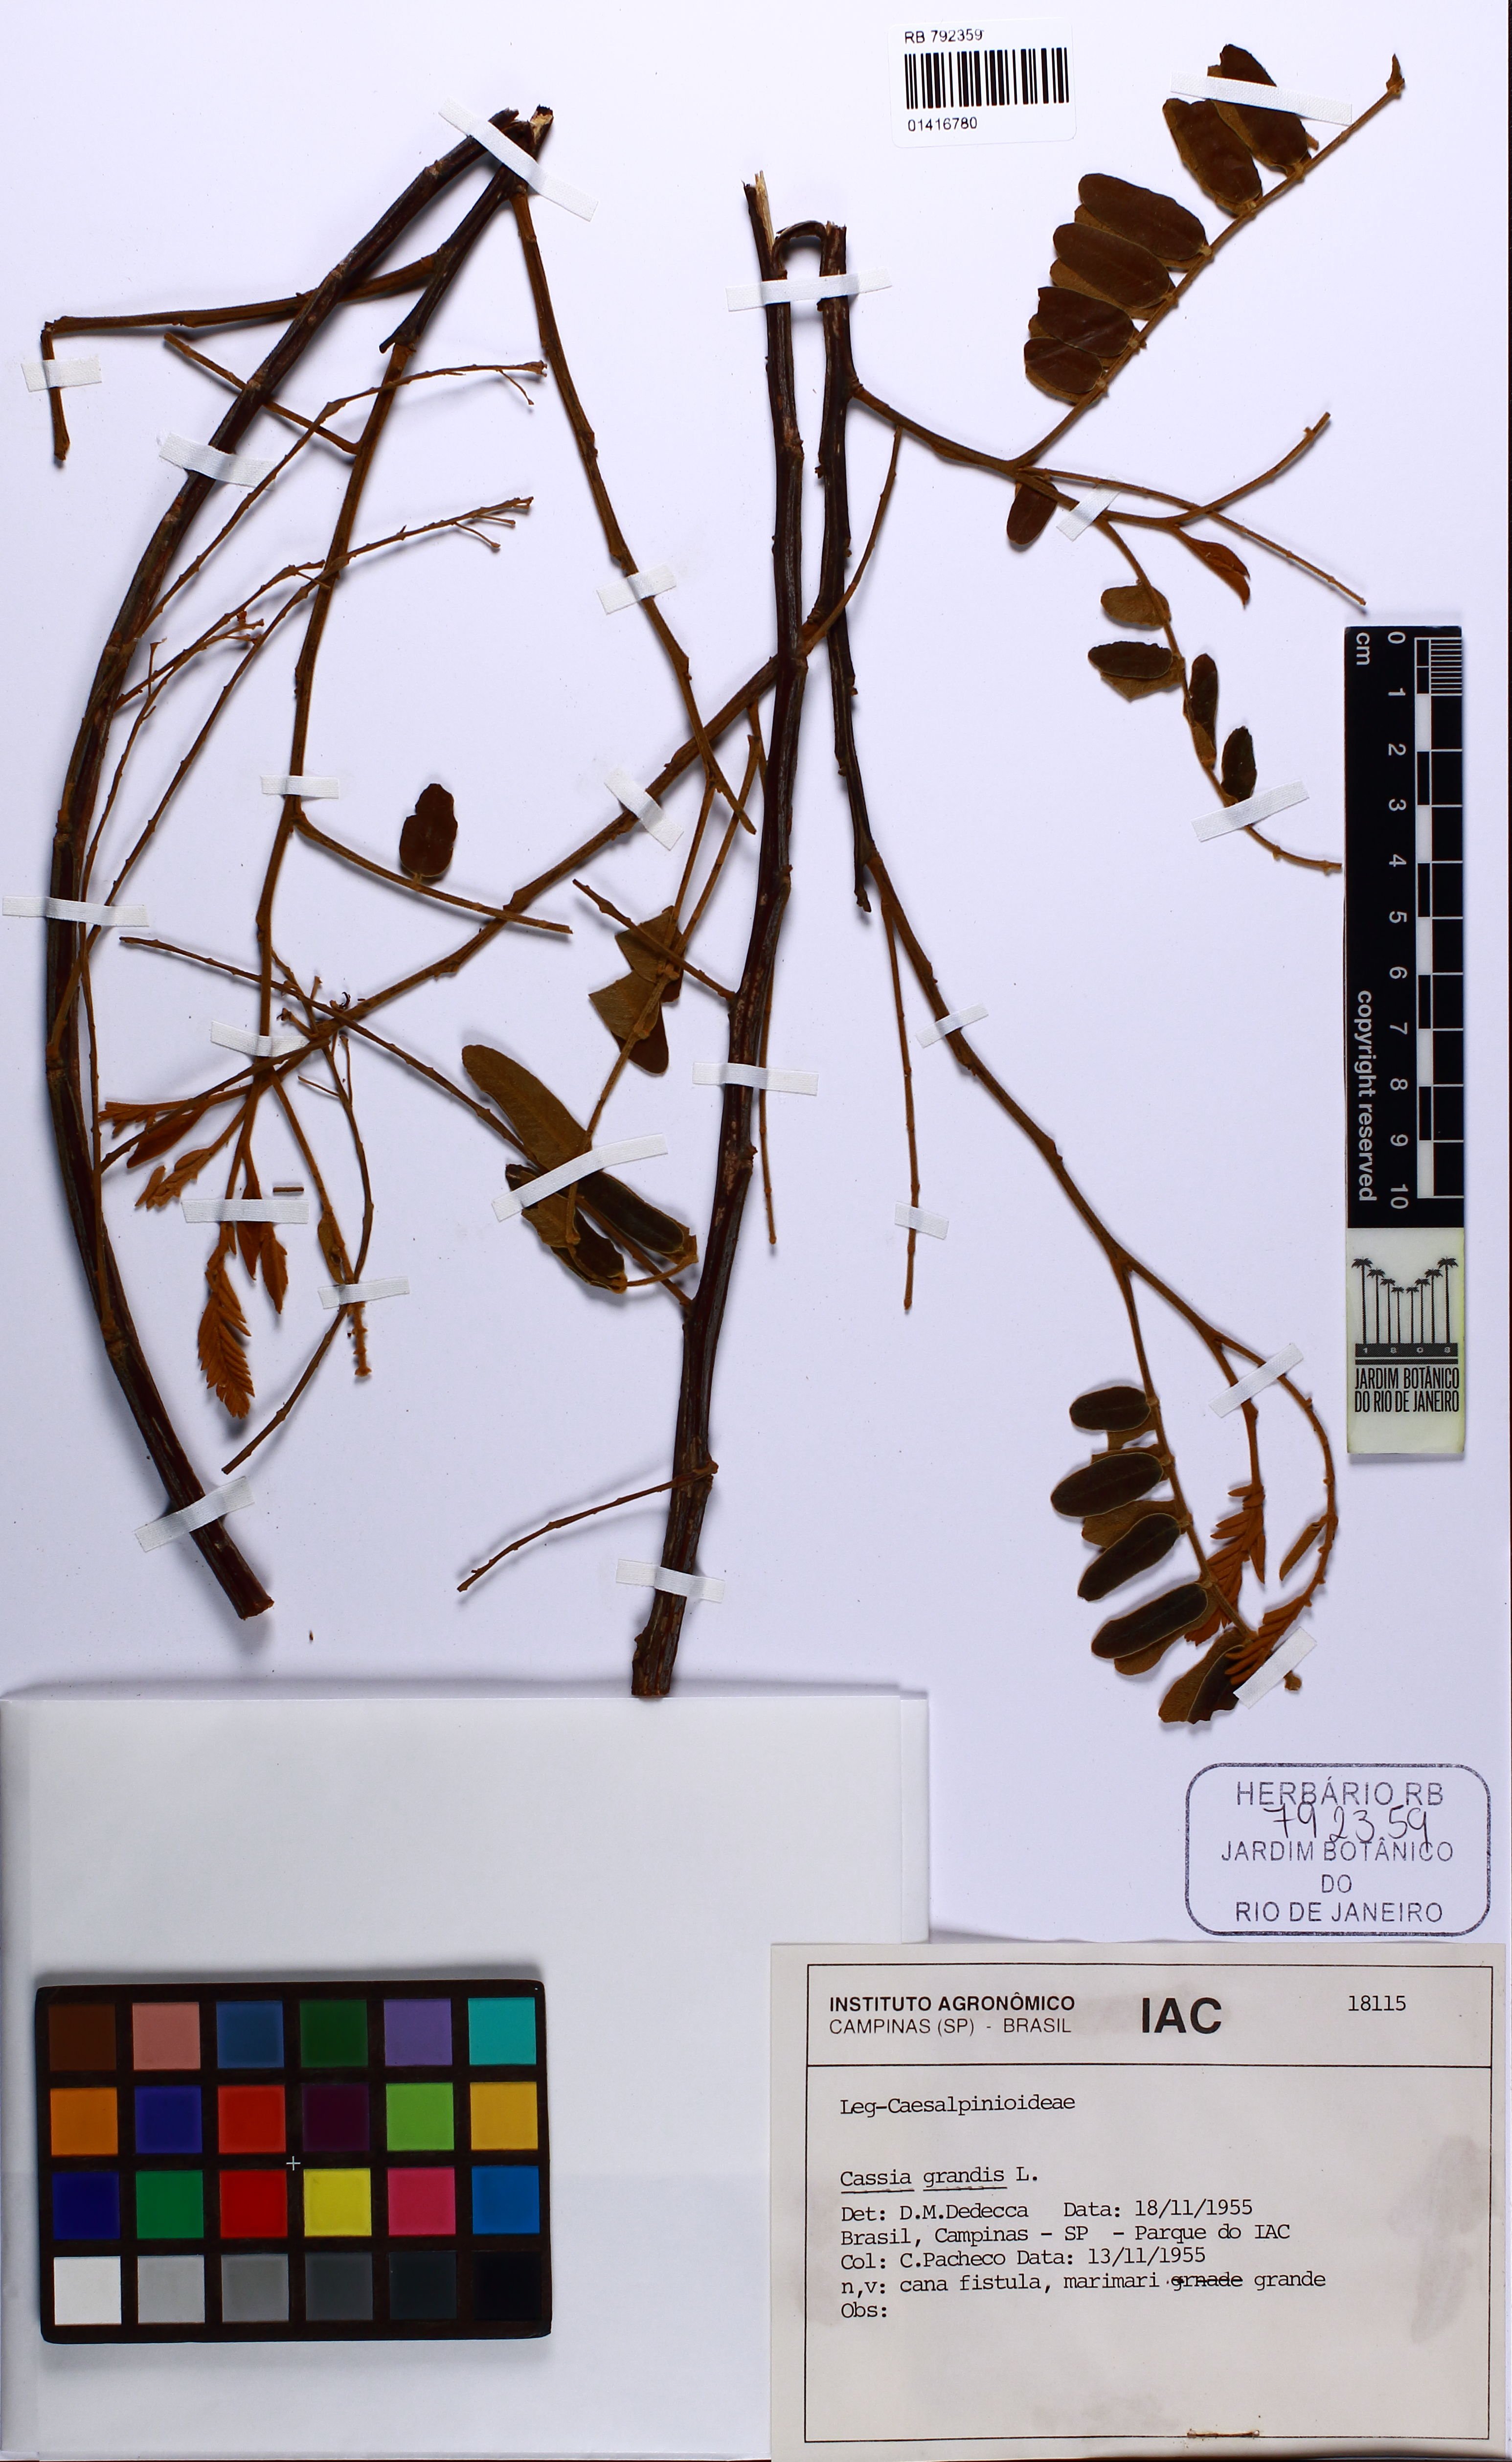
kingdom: Plantae
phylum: Tracheophyta
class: Magnoliopsida
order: Fabales
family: Fabaceae
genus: Cassia
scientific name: Cassia grandis
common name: Appleblossom cassia
